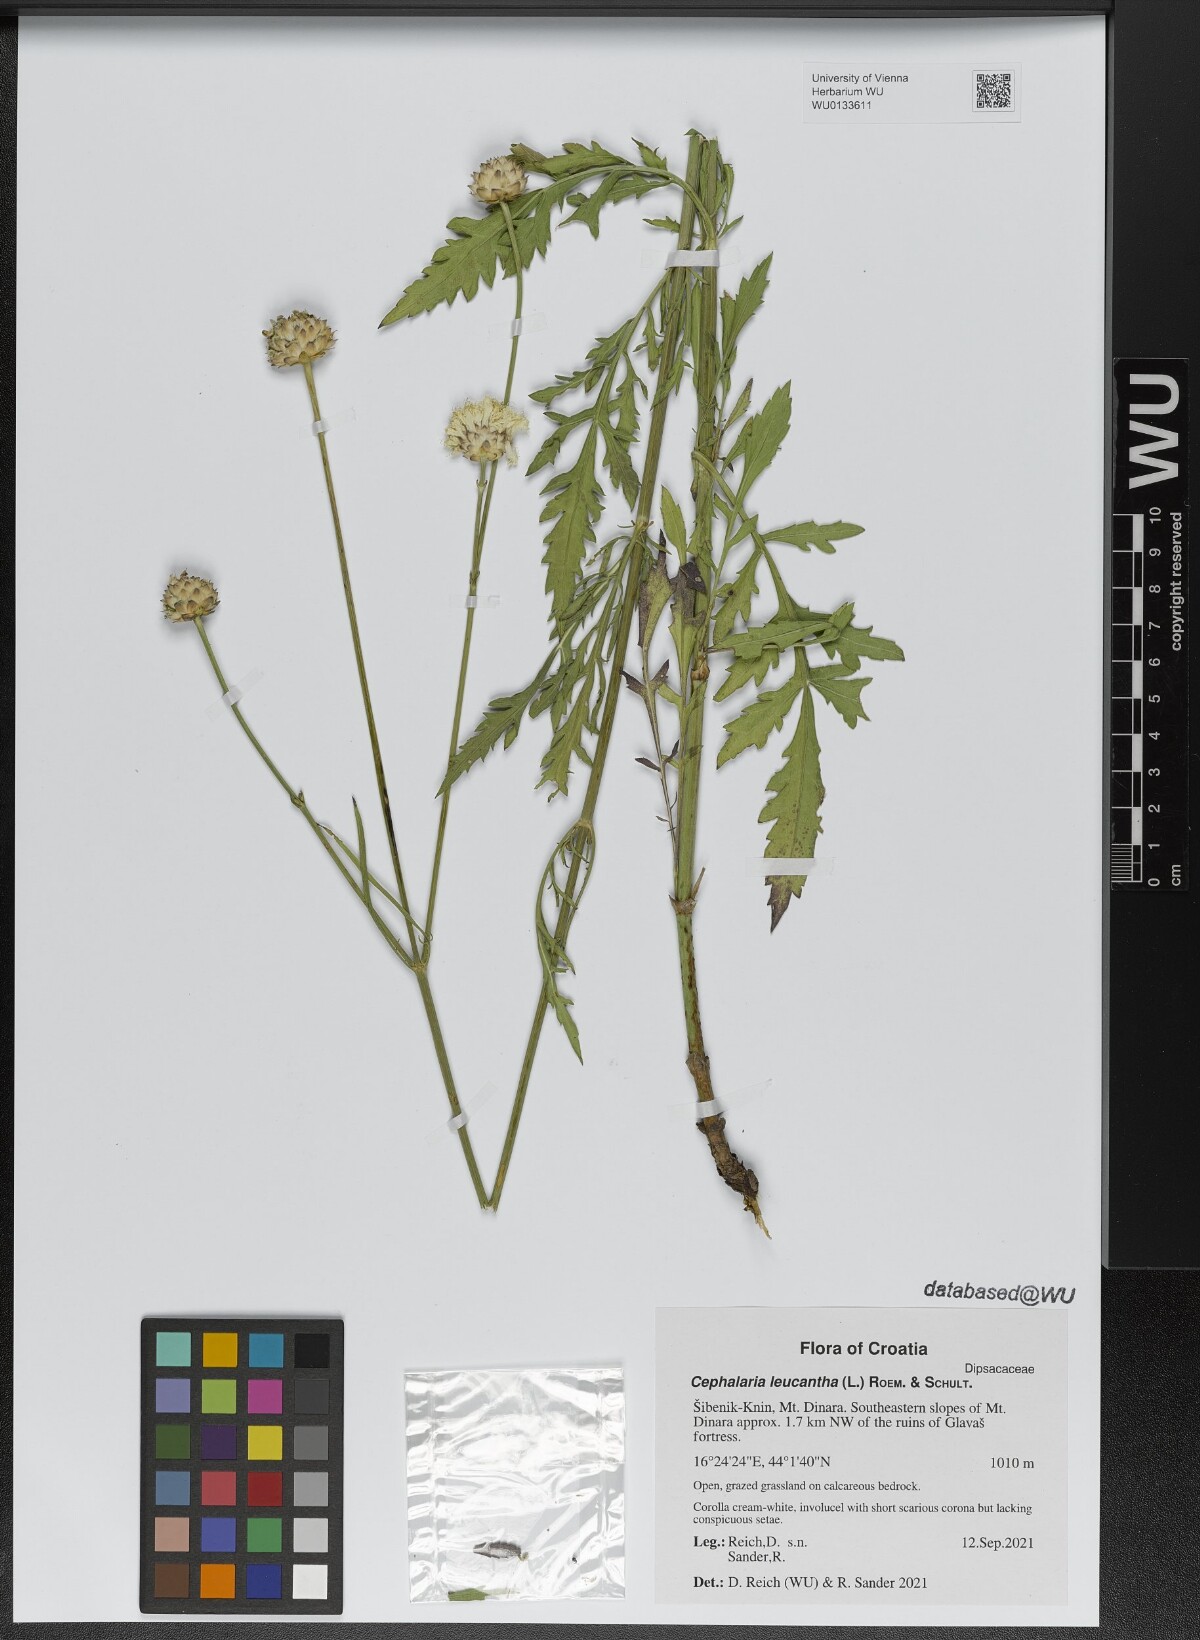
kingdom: Plantae
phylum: Tracheophyta
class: Magnoliopsida
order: Dipsacales
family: Dipsacaceae
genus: Cephalaria
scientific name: Cephalaria leucantha
